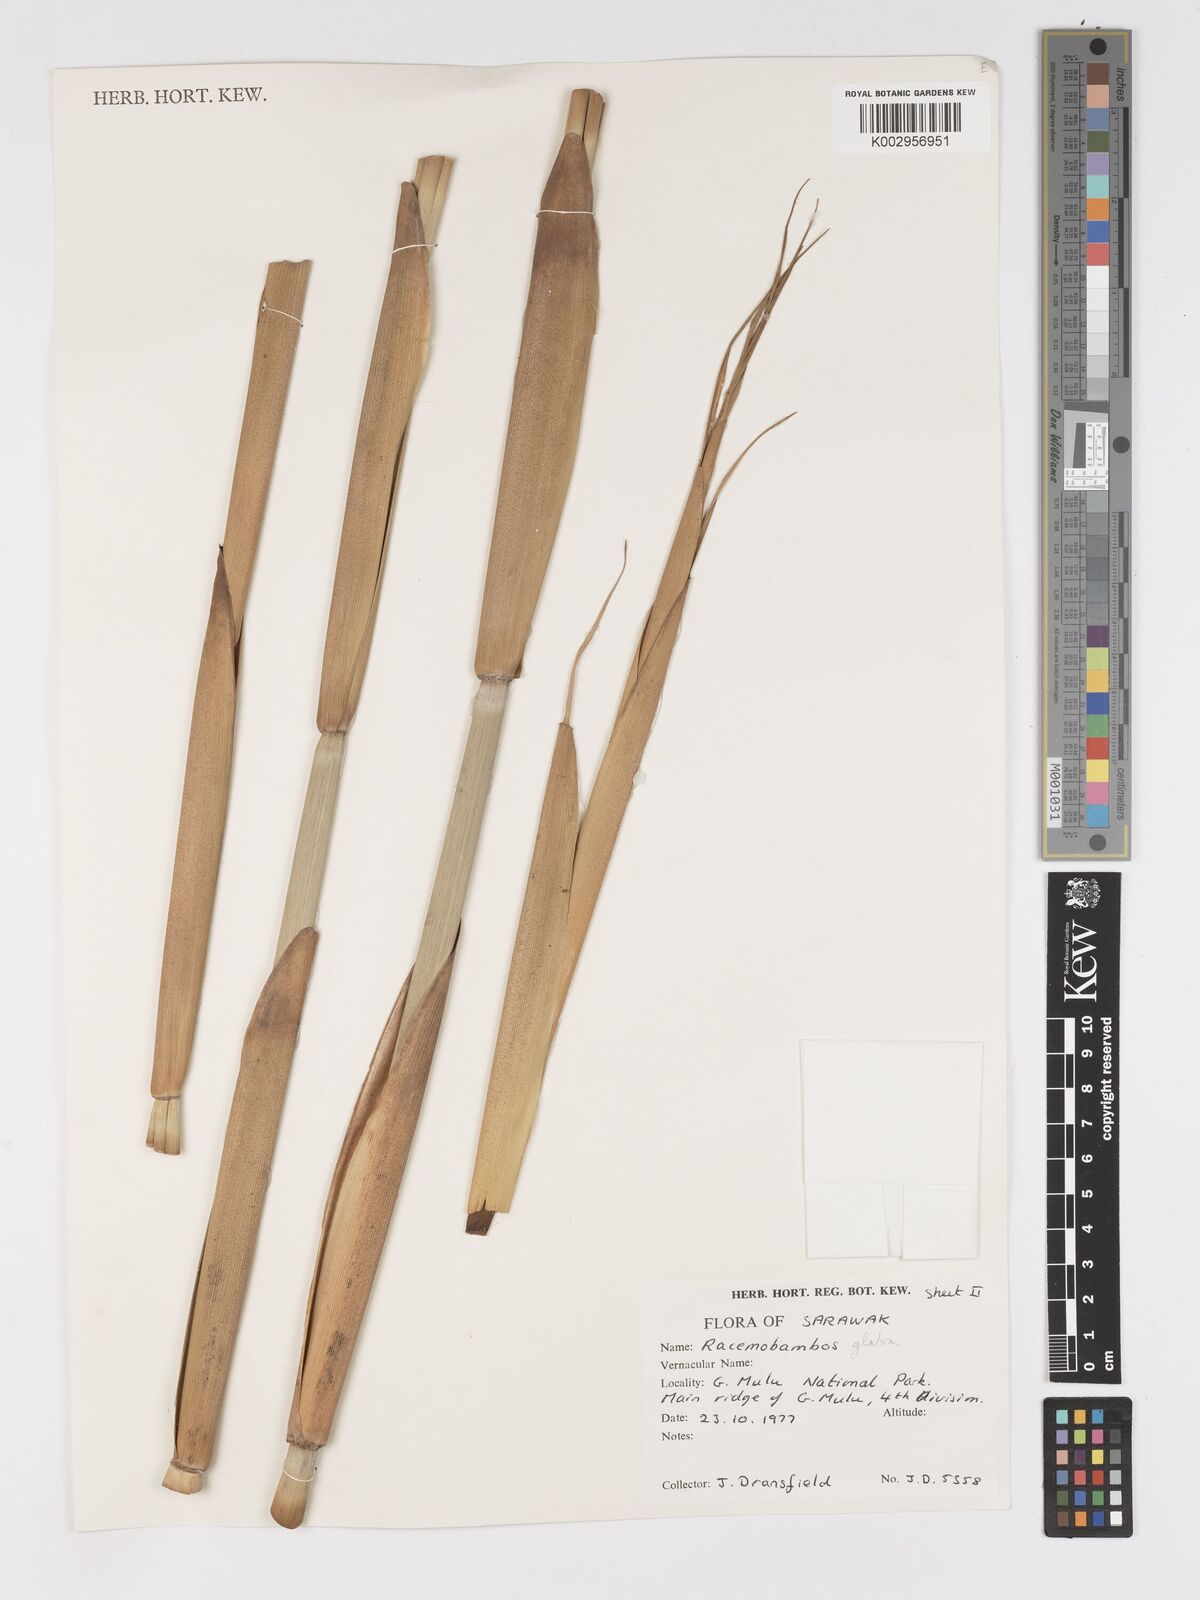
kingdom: Plantae
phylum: Tracheophyta
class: Liliopsida
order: Poales
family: Poaceae
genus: Racemobambos
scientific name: Racemobambos glabra
